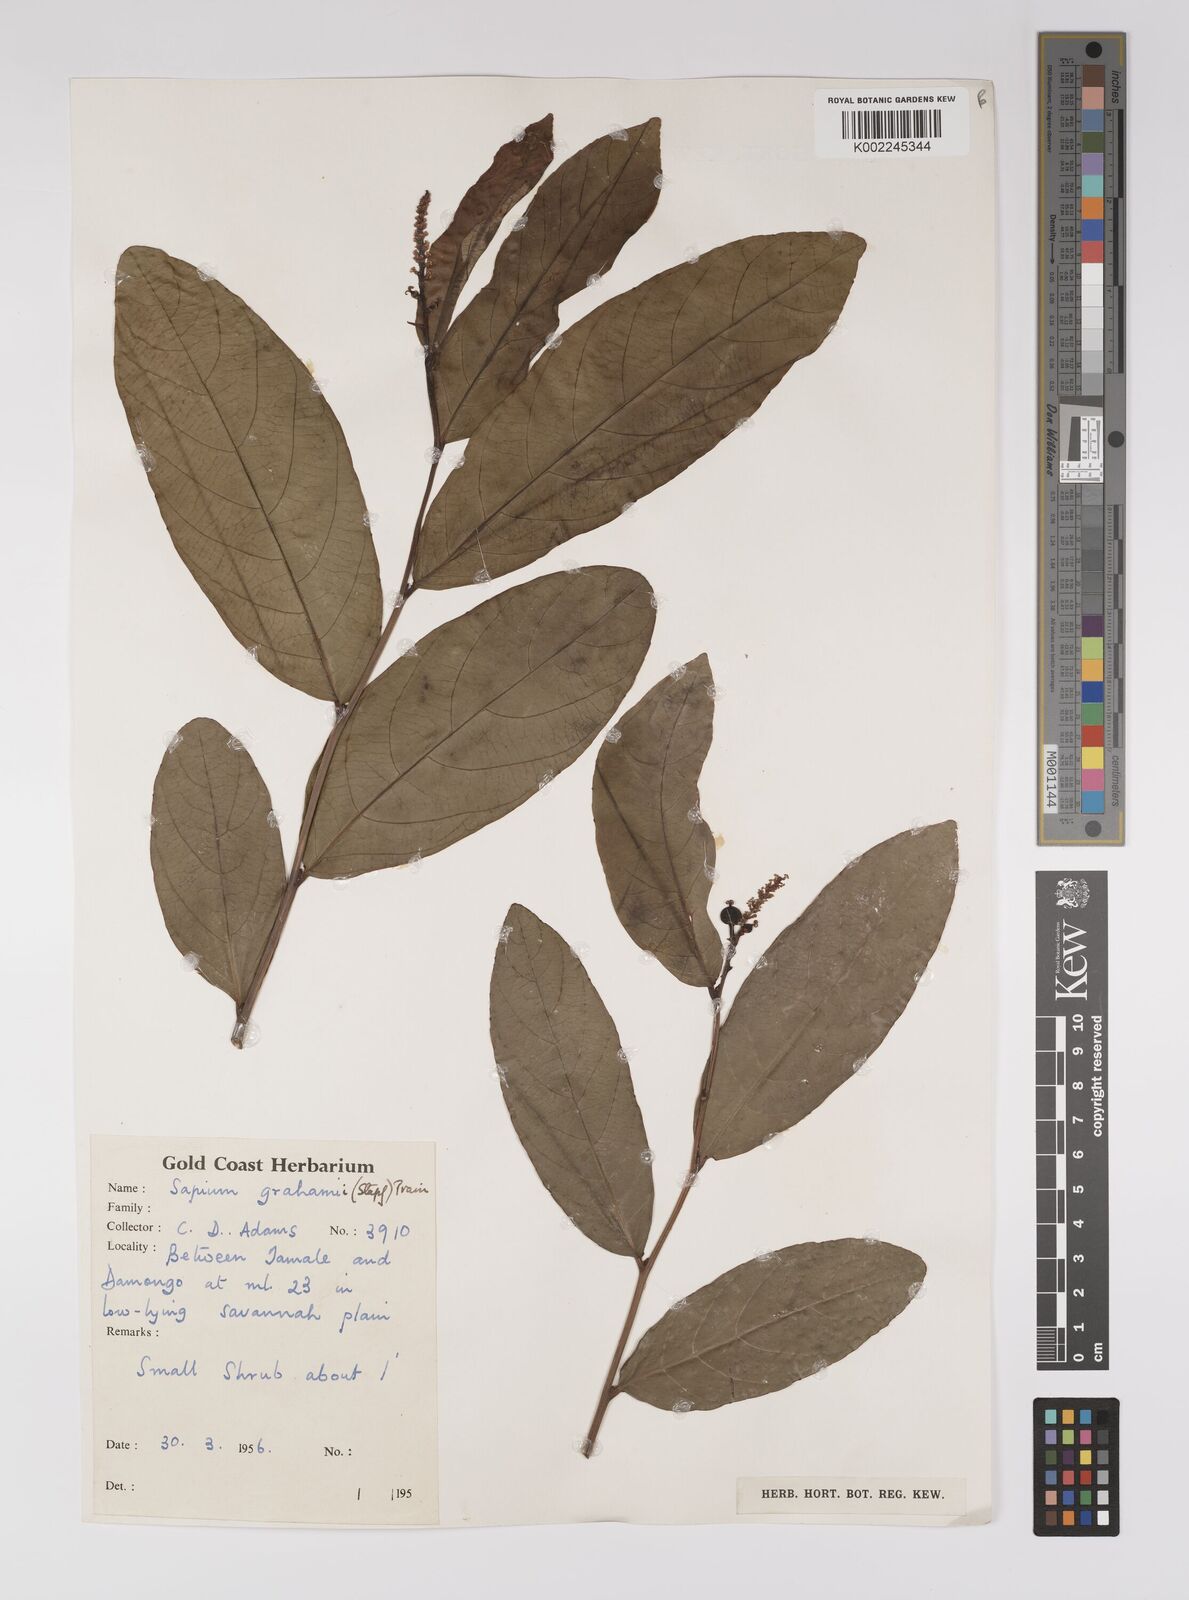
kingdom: Plantae
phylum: Tracheophyta
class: Magnoliopsida
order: Malpighiales
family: Euphorbiaceae
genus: Excoecaria
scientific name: Excoecaria grahamii
